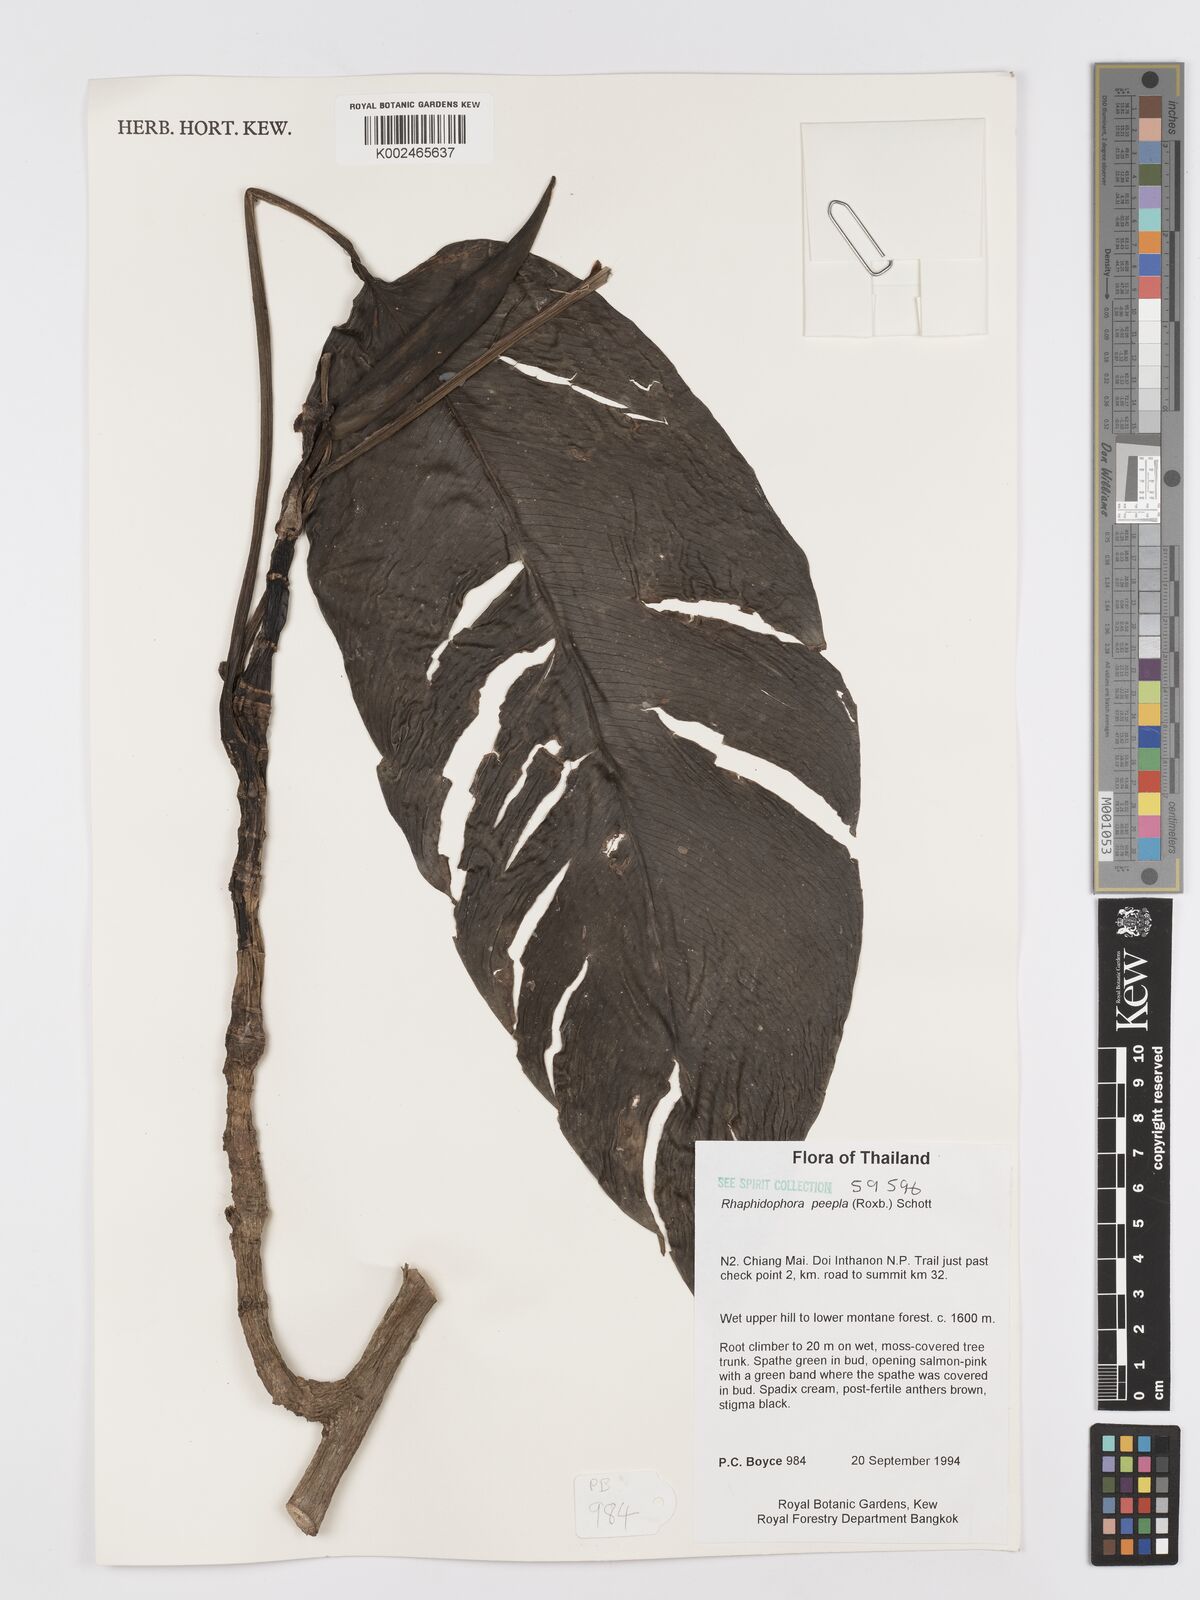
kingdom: Plantae
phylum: Tracheophyta
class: Liliopsida
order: Alismatales
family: Araceae
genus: Rhaphidophora
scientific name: Rhaphidophora peepla
